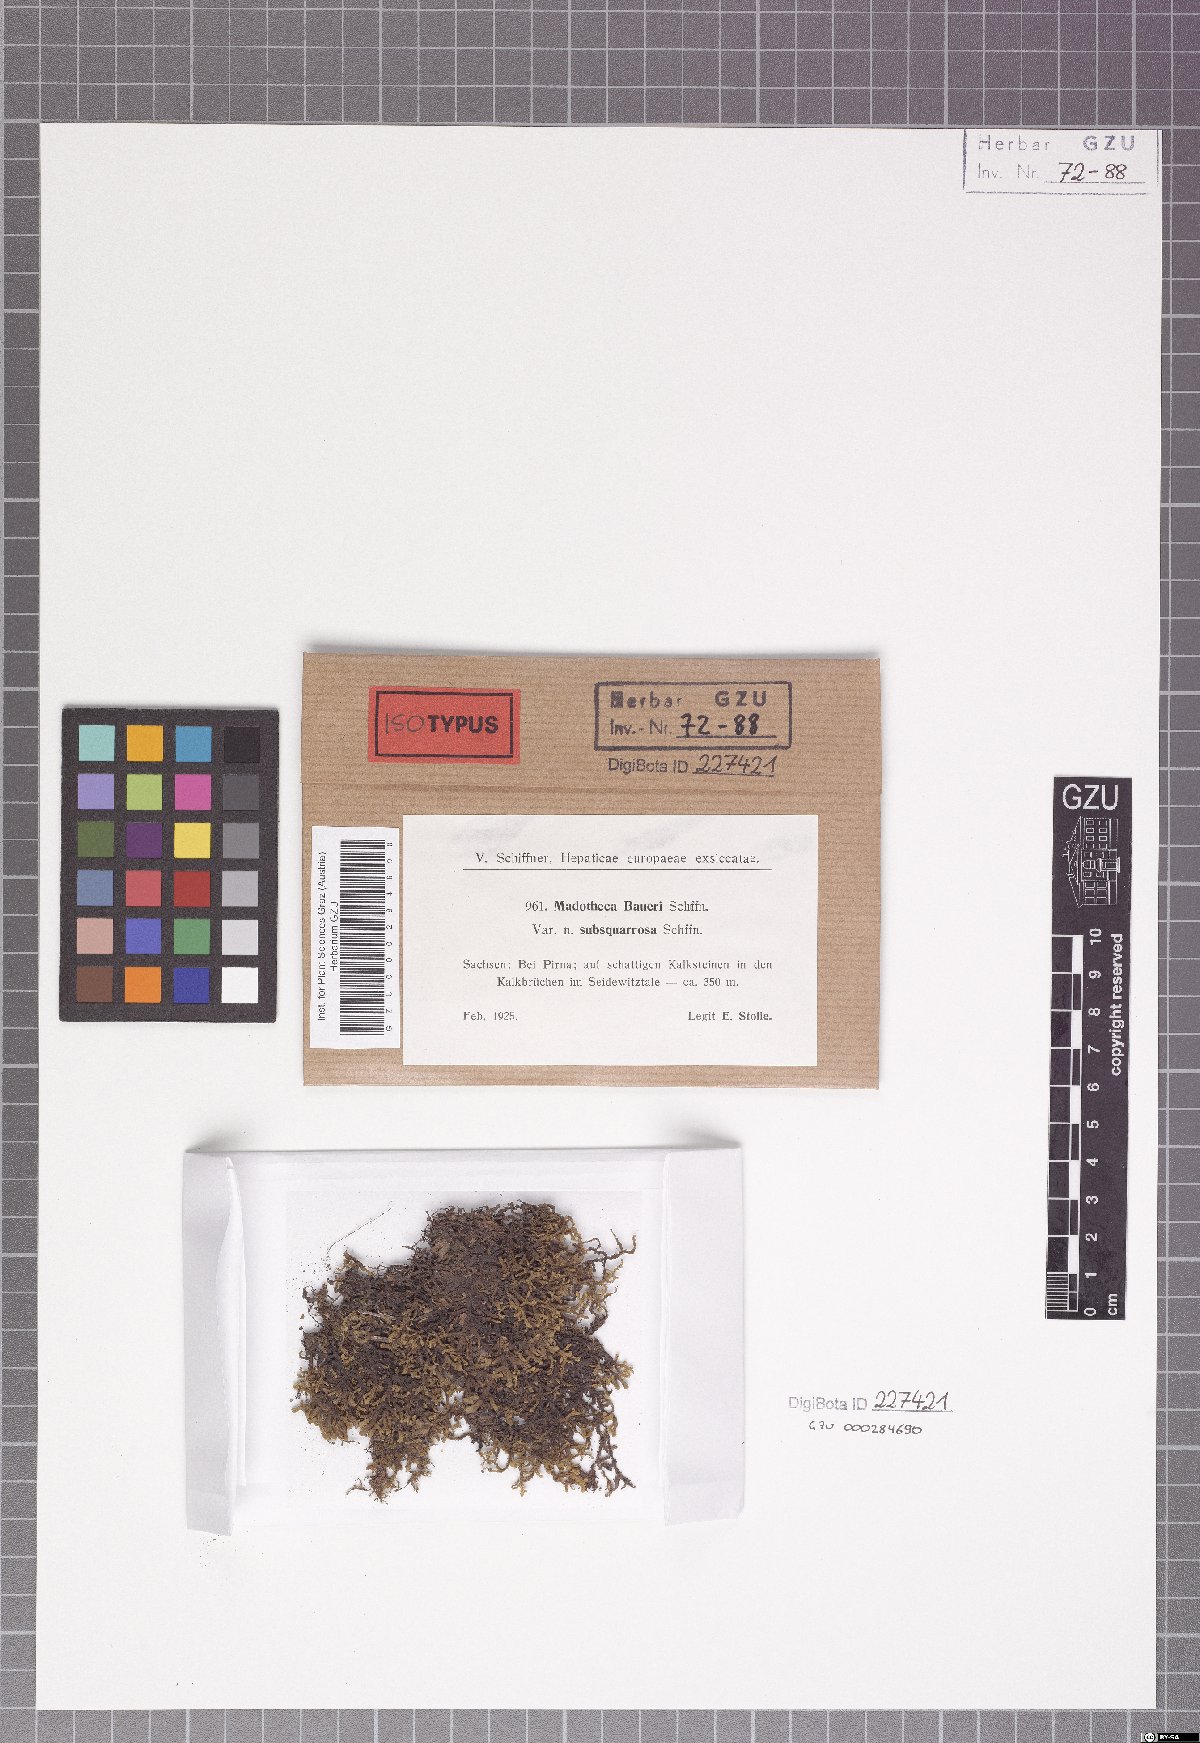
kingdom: Plantae
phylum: Marchantiophyta
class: Jungermanniopsida
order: Porellales
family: Porellaceae
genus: Porella
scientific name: Porella baueri
